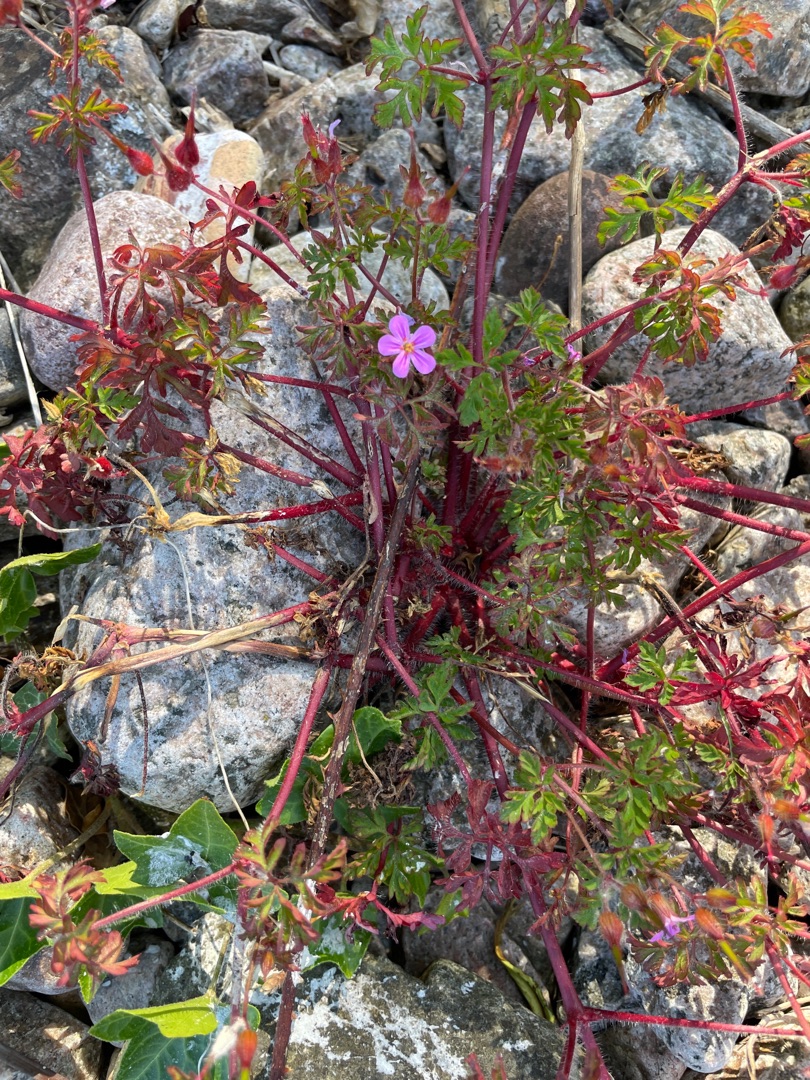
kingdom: Plantae
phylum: Tracheophyta
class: Magnoliopsida
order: Geraniales
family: Geraniaceae
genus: Geranium
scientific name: Geranium robertianum
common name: Stinkende storkenæb
